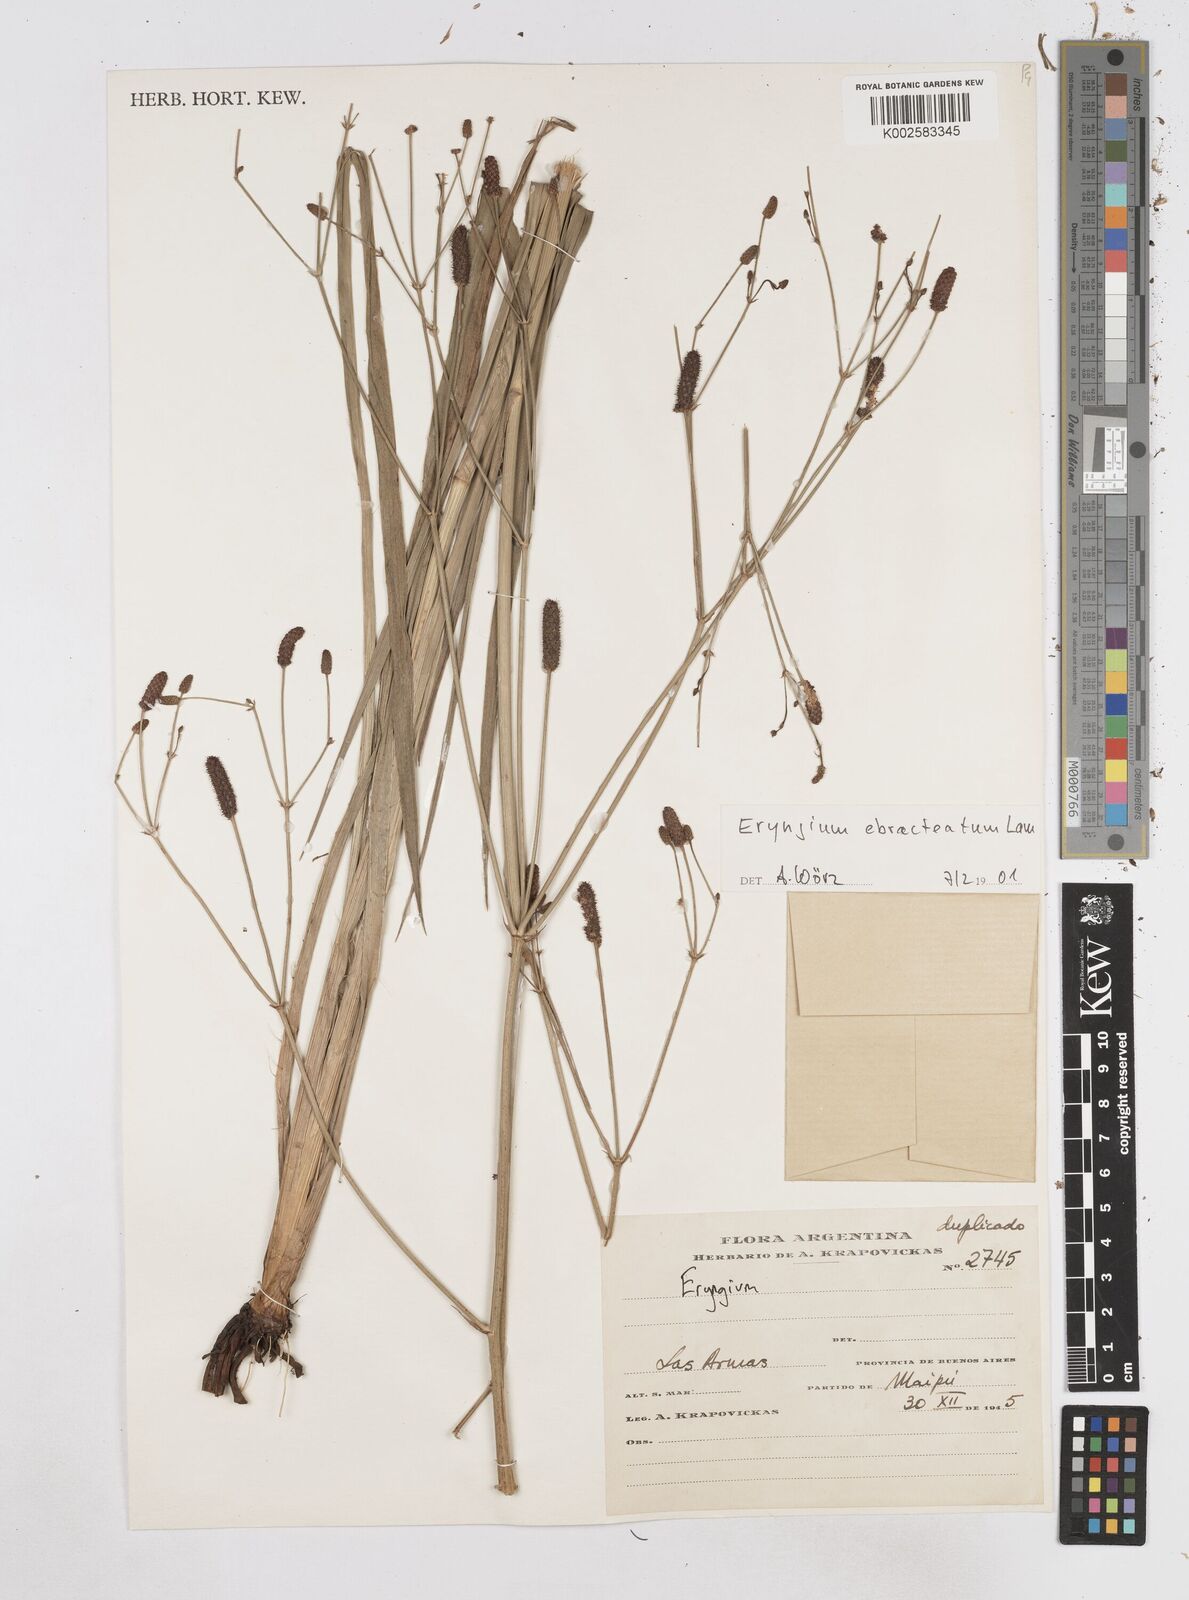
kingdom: Plantae
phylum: Tracheophyta
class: Magnoliopsida
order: Apiales
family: Apiaceae
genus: Eryngium
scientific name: Eryngium ebracteatum
